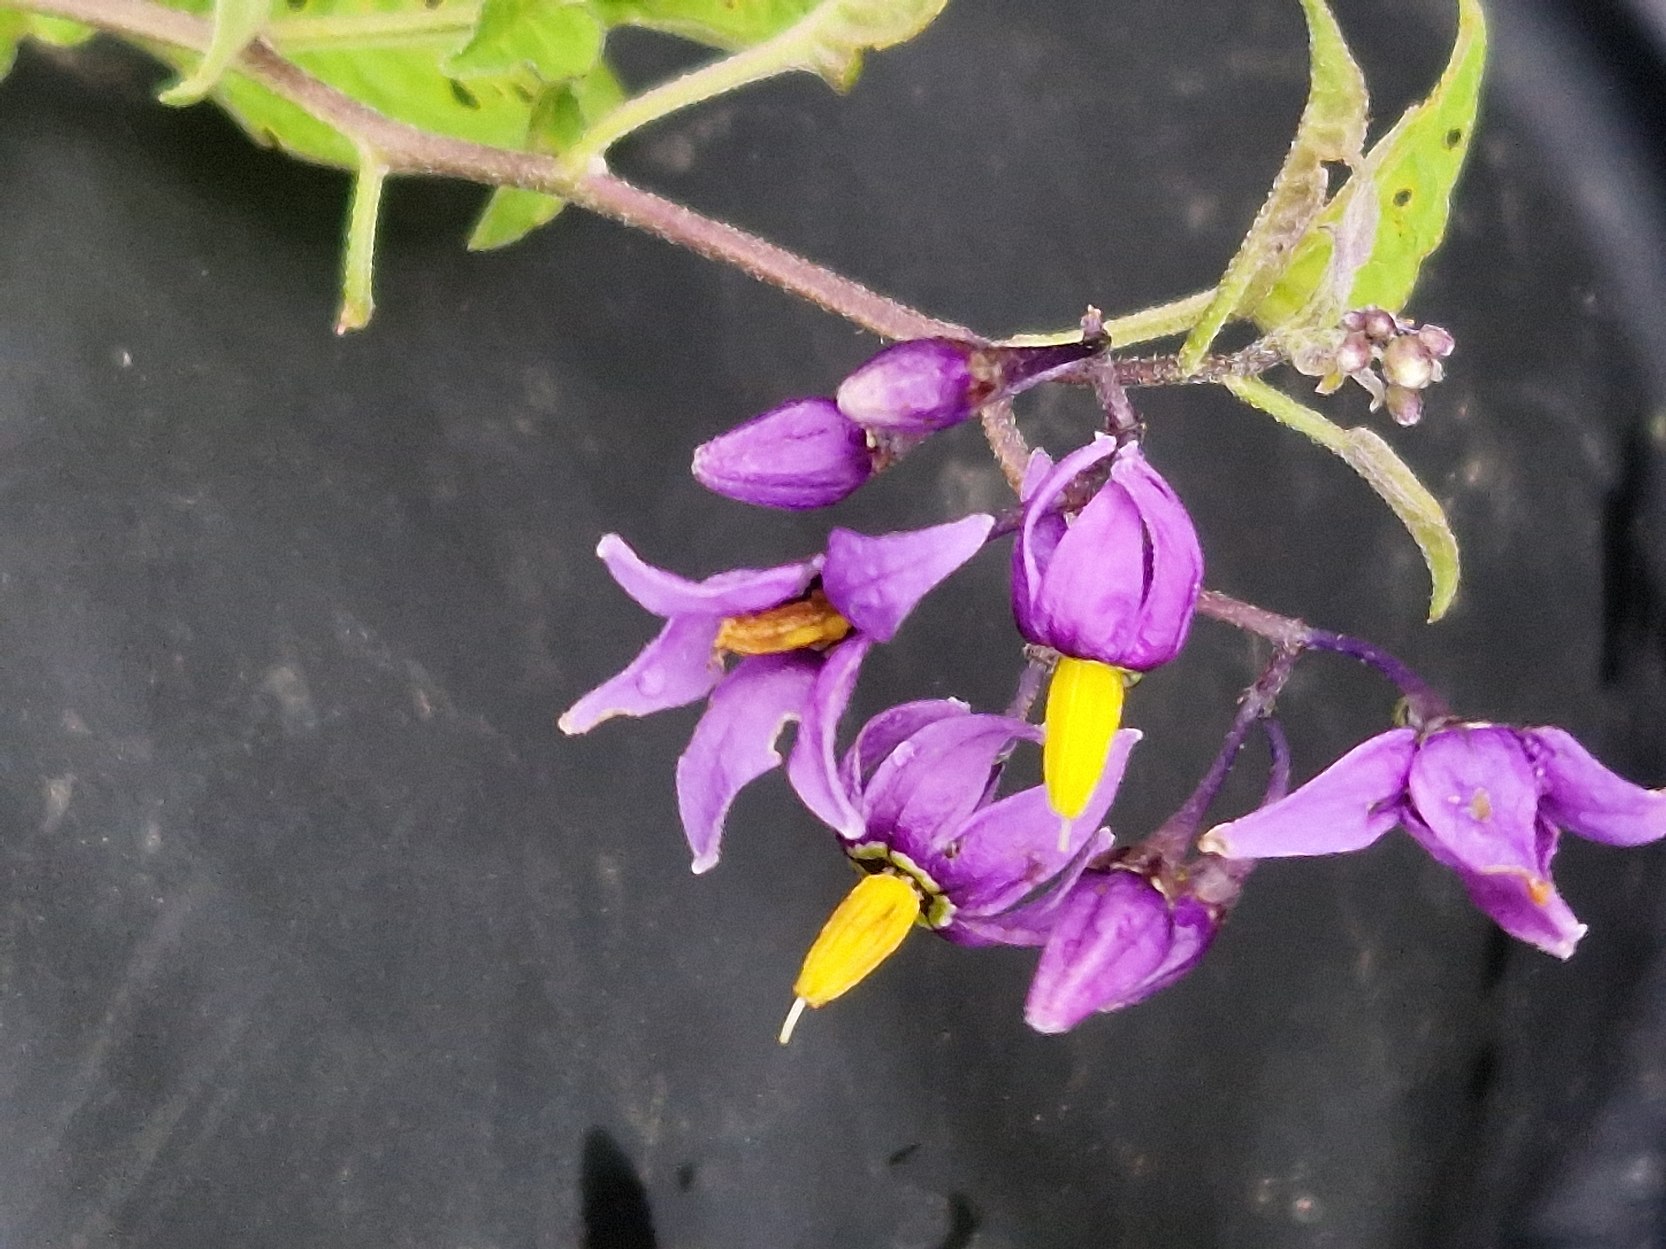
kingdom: Plantae
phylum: Tracheophyta
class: Magnoliopsida
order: Solanales
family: Solanaceae
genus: Solanum
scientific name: Solanum dulcamara
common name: Bittersød natskygge
